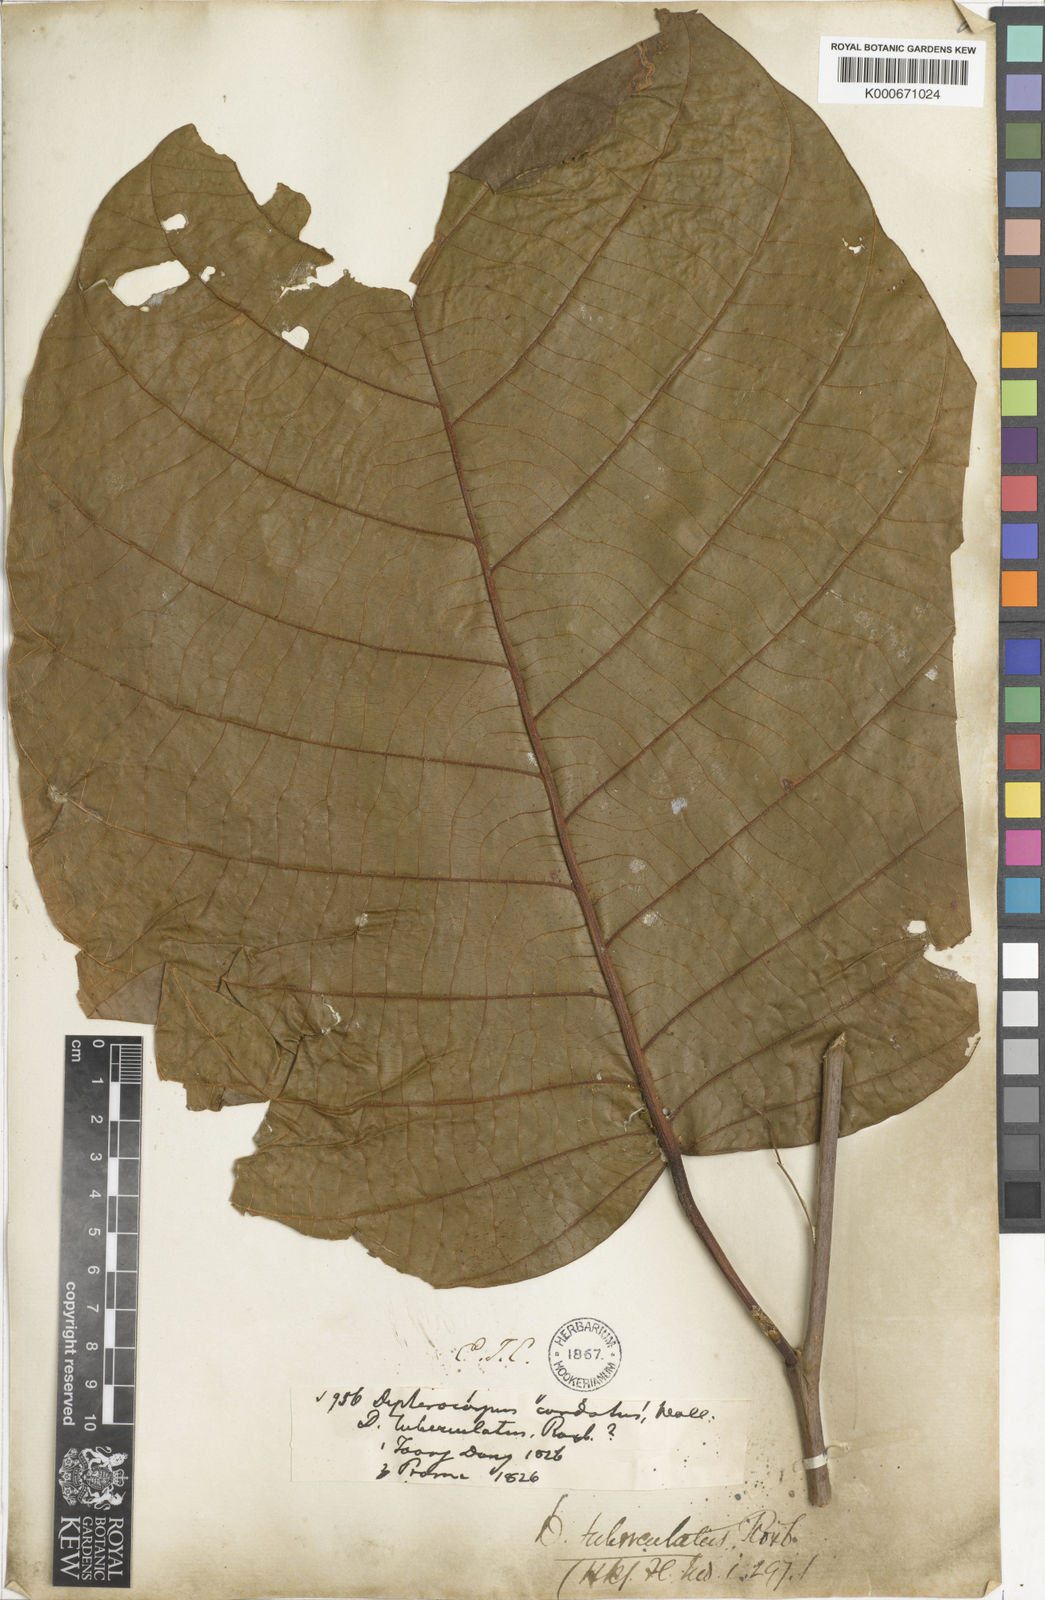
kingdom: Plantae
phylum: Tracheophyta
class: Magnoliopsida
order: Malvales
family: Dipterocarpaceae
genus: Dipterocarpus
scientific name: Dipterocarpus tuberculatus
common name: Eng gurjuntree
